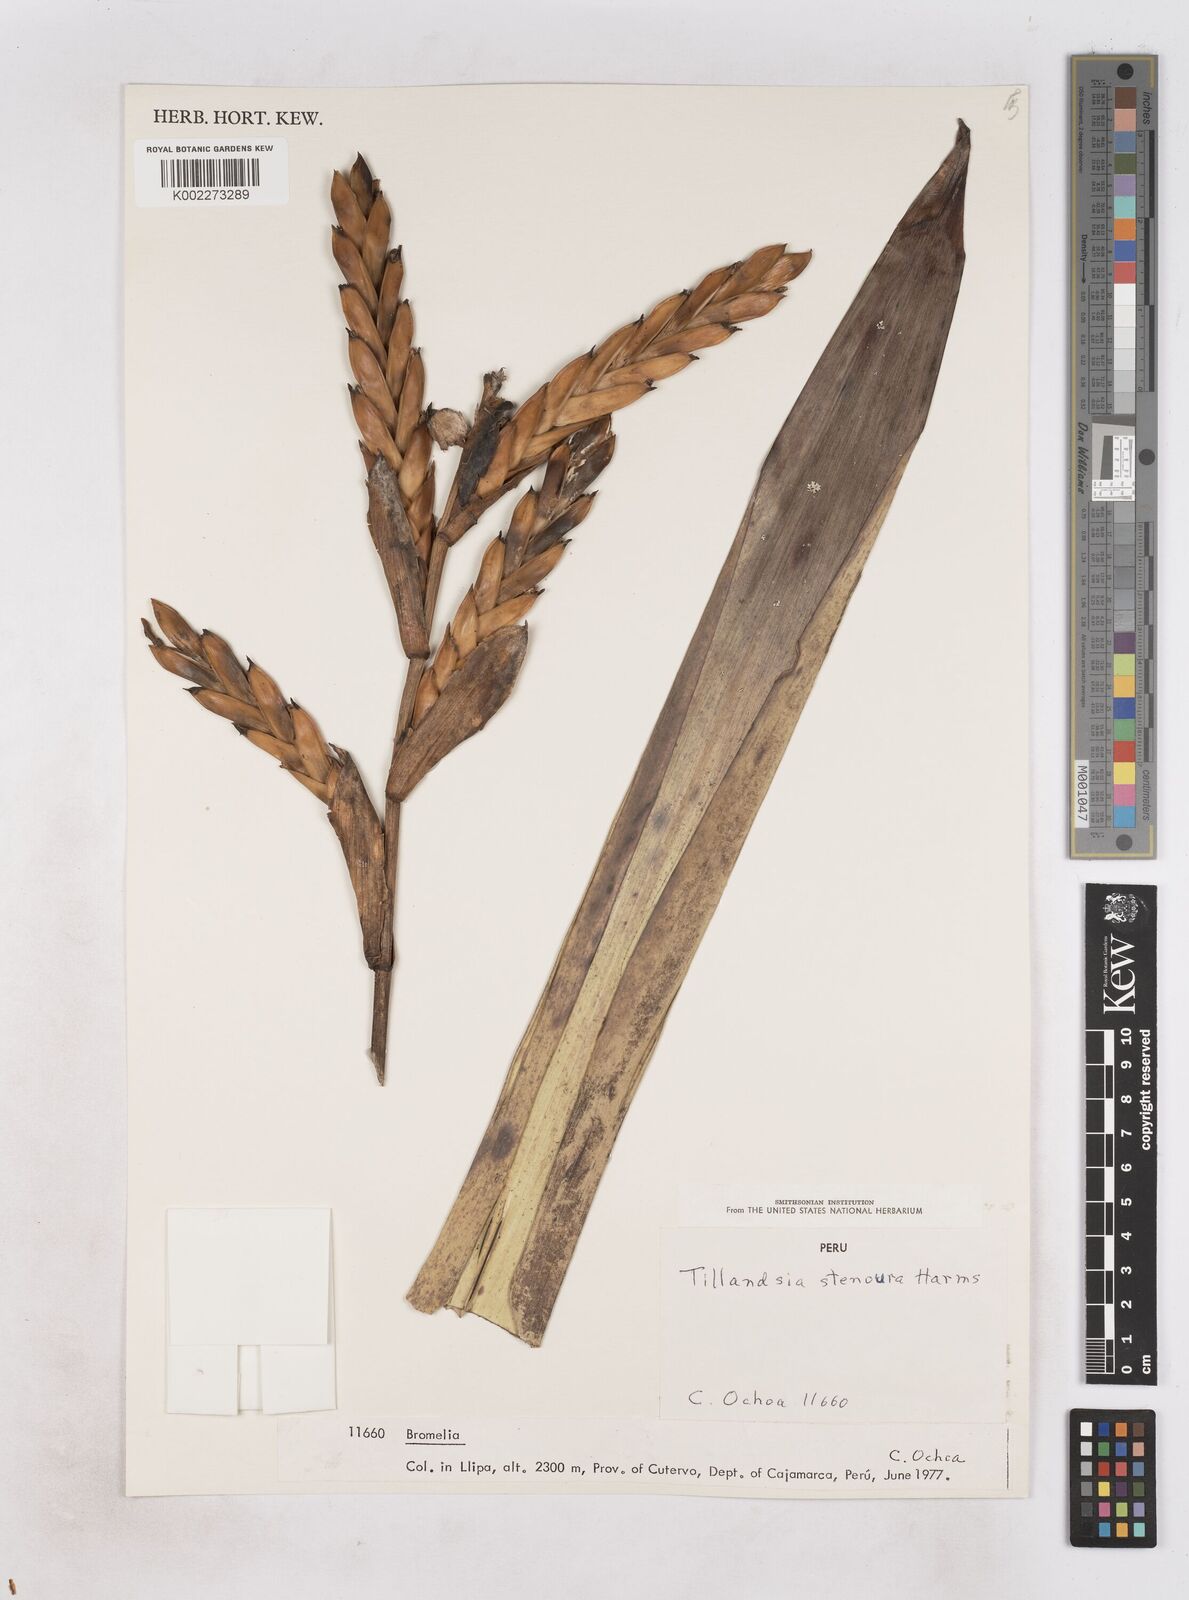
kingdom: Plantae
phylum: Tracheophyta
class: Liliopsida
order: Poales
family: Bromeliaceae
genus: Tillandsia
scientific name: Tillandsia stenoura
